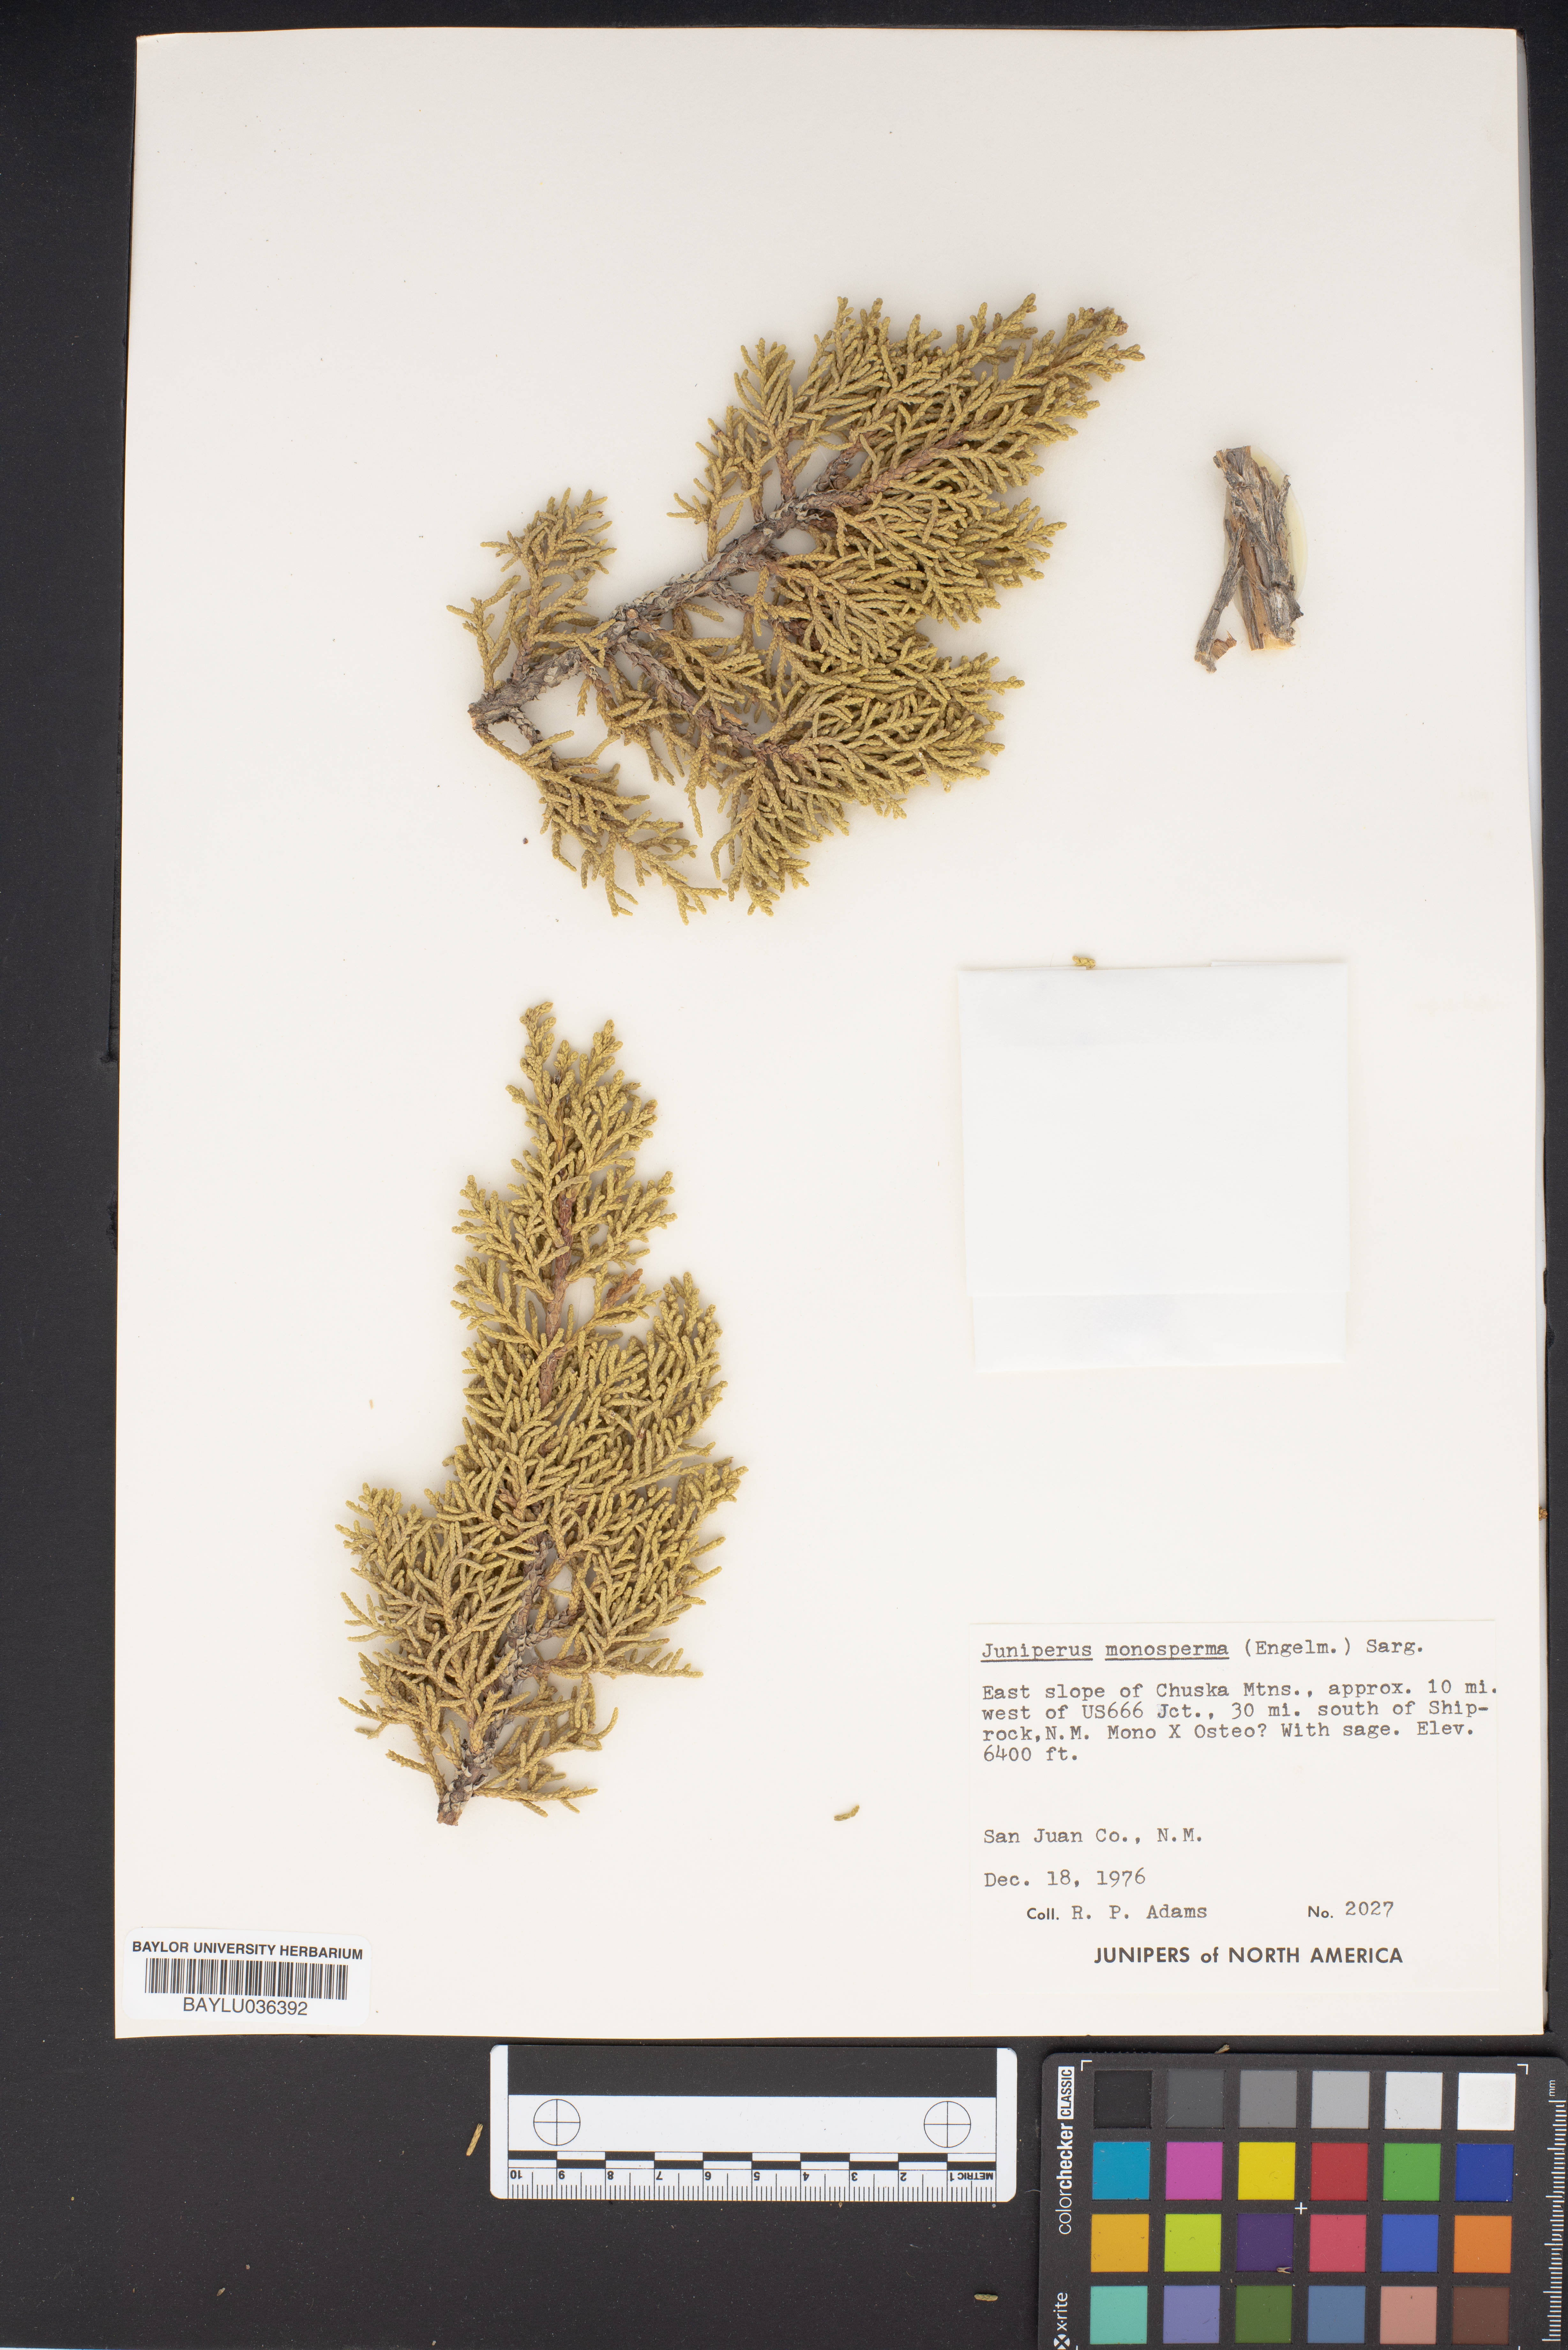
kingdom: Plantae
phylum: Tracheophyta
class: Pinopsida
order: Pinales
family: Cupressaceae
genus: Juniperus
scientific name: Juniperus monosperma
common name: One-seed juniper
